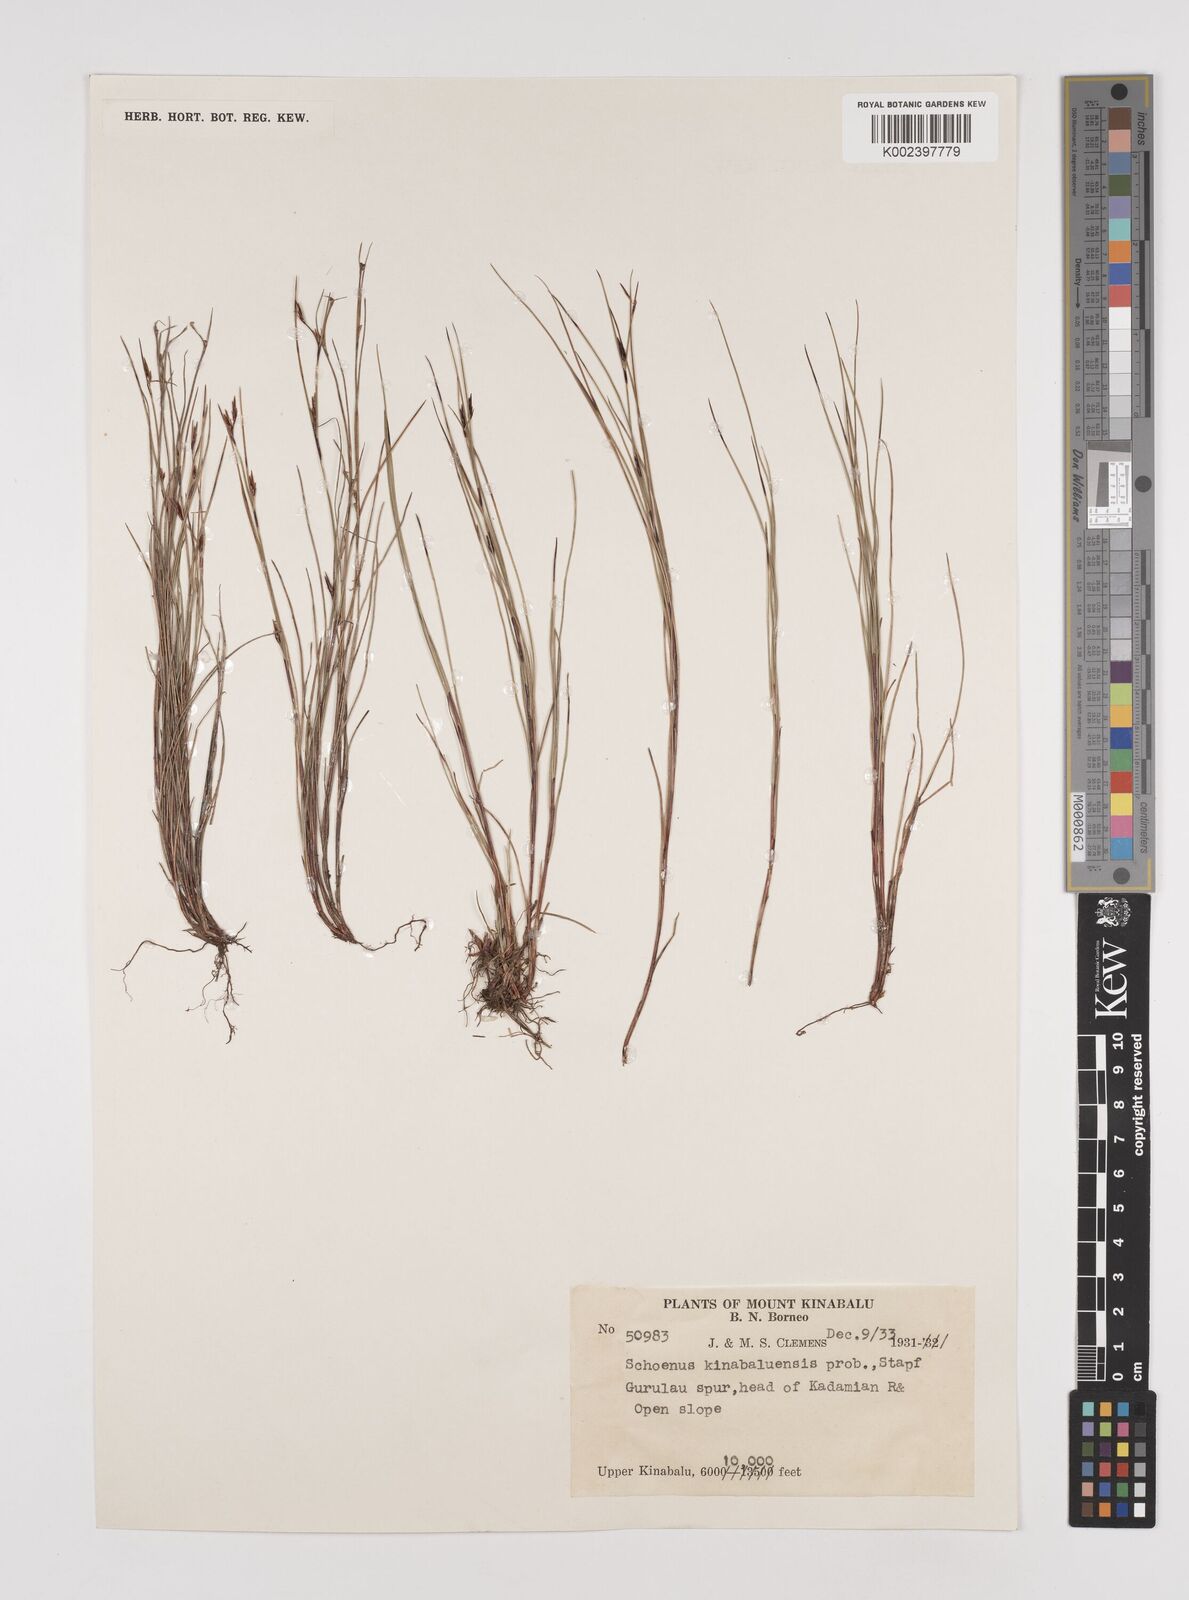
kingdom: Plantae
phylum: Tracheophyta
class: Liliopsida
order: Poales
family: Cyperaceae
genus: Schoenus
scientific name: Schoenus curvulus
